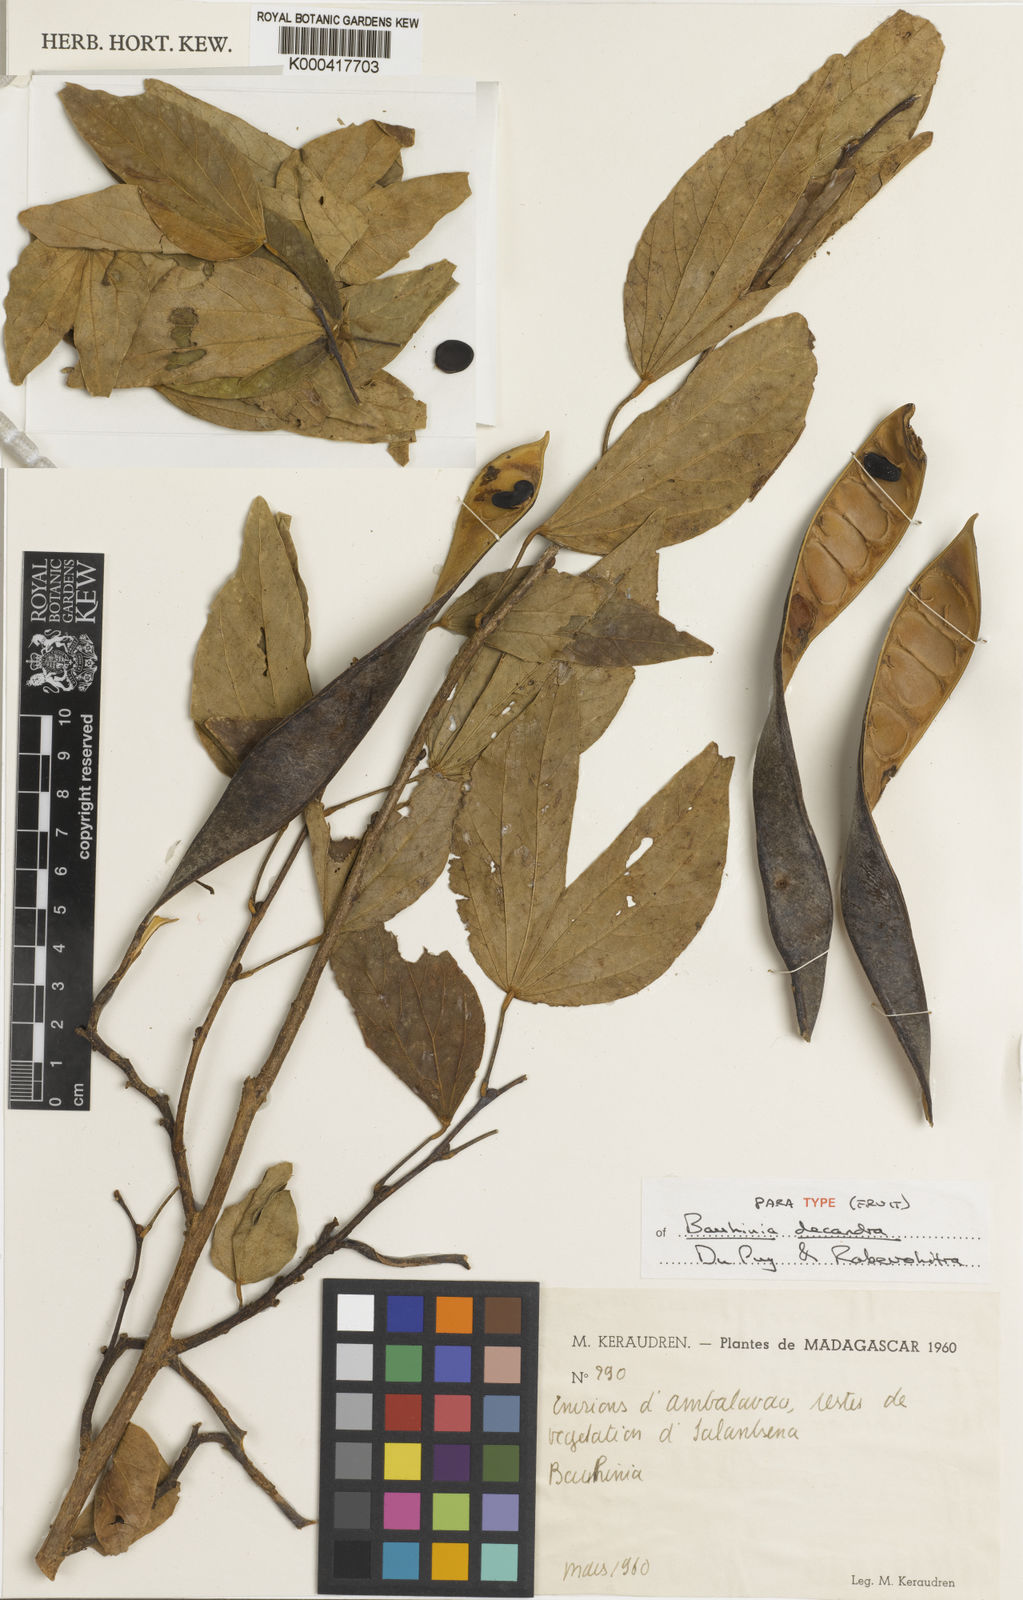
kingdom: Plantae
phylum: Tracheophyta
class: Magnoliopsida
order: Fabales
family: Fabaceae
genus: Bauhinia
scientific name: Bauhinia decandra
